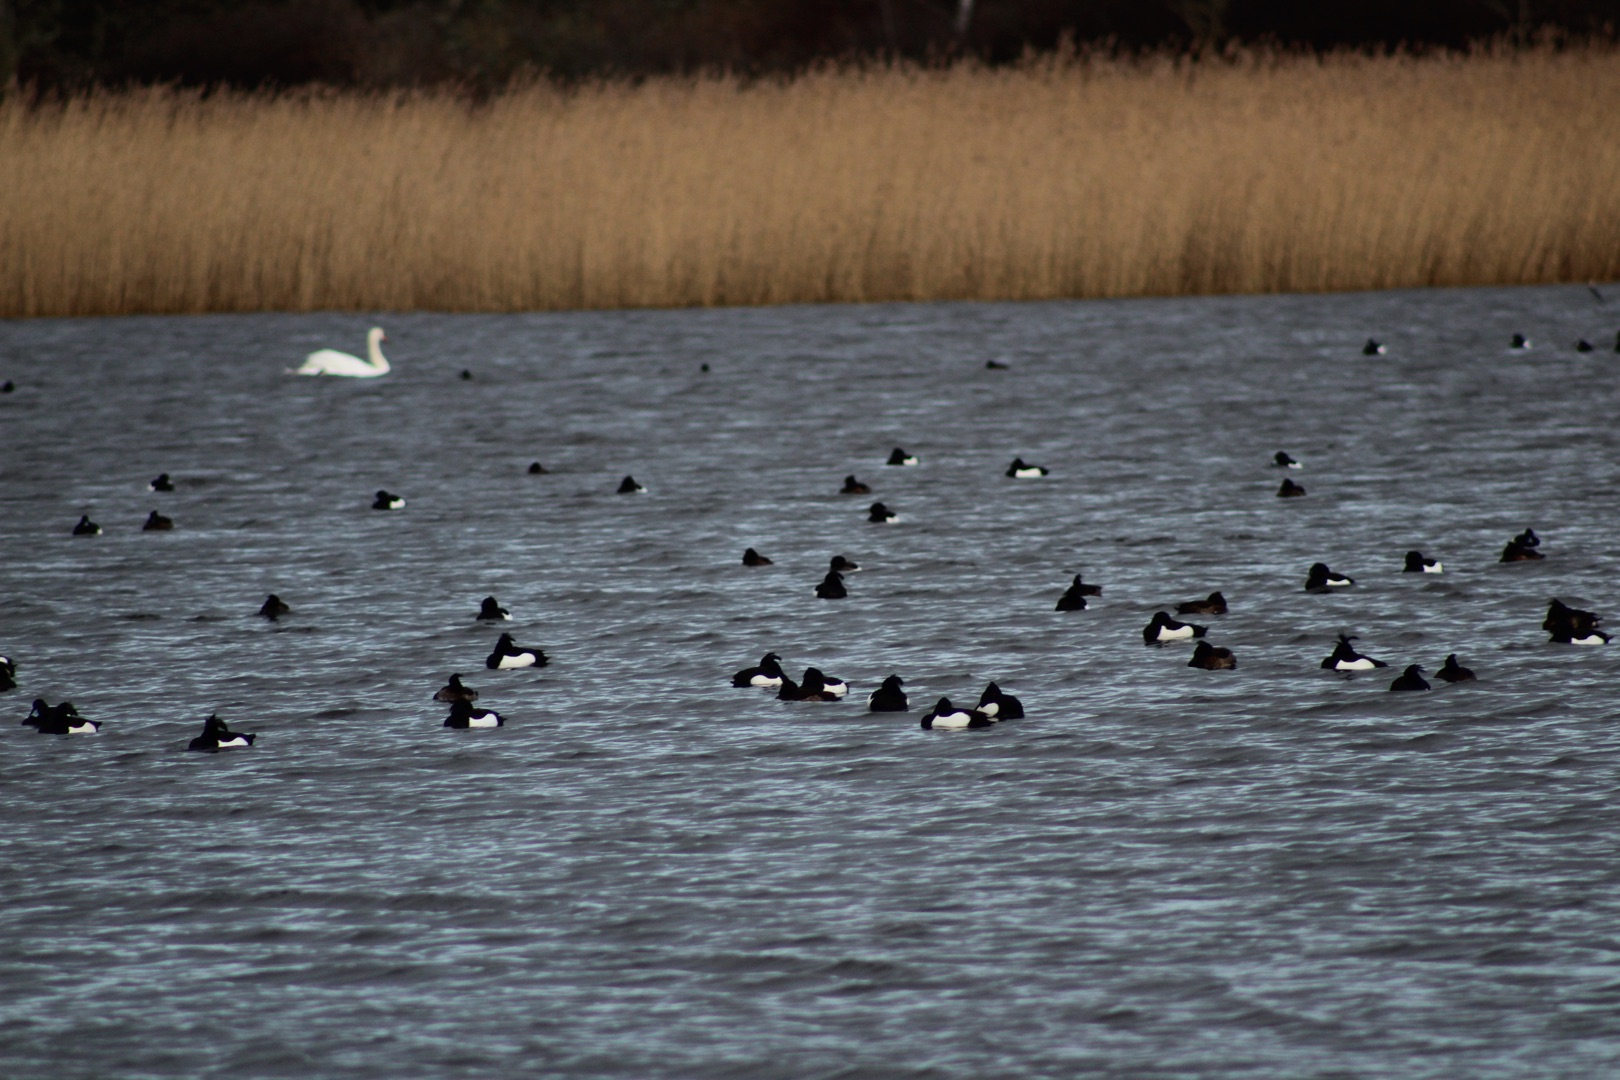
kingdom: Animalia
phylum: Chordata
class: Aves
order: Anseriformes
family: Anatidae
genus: Aythya
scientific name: Aythya fuligula
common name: Troldand
